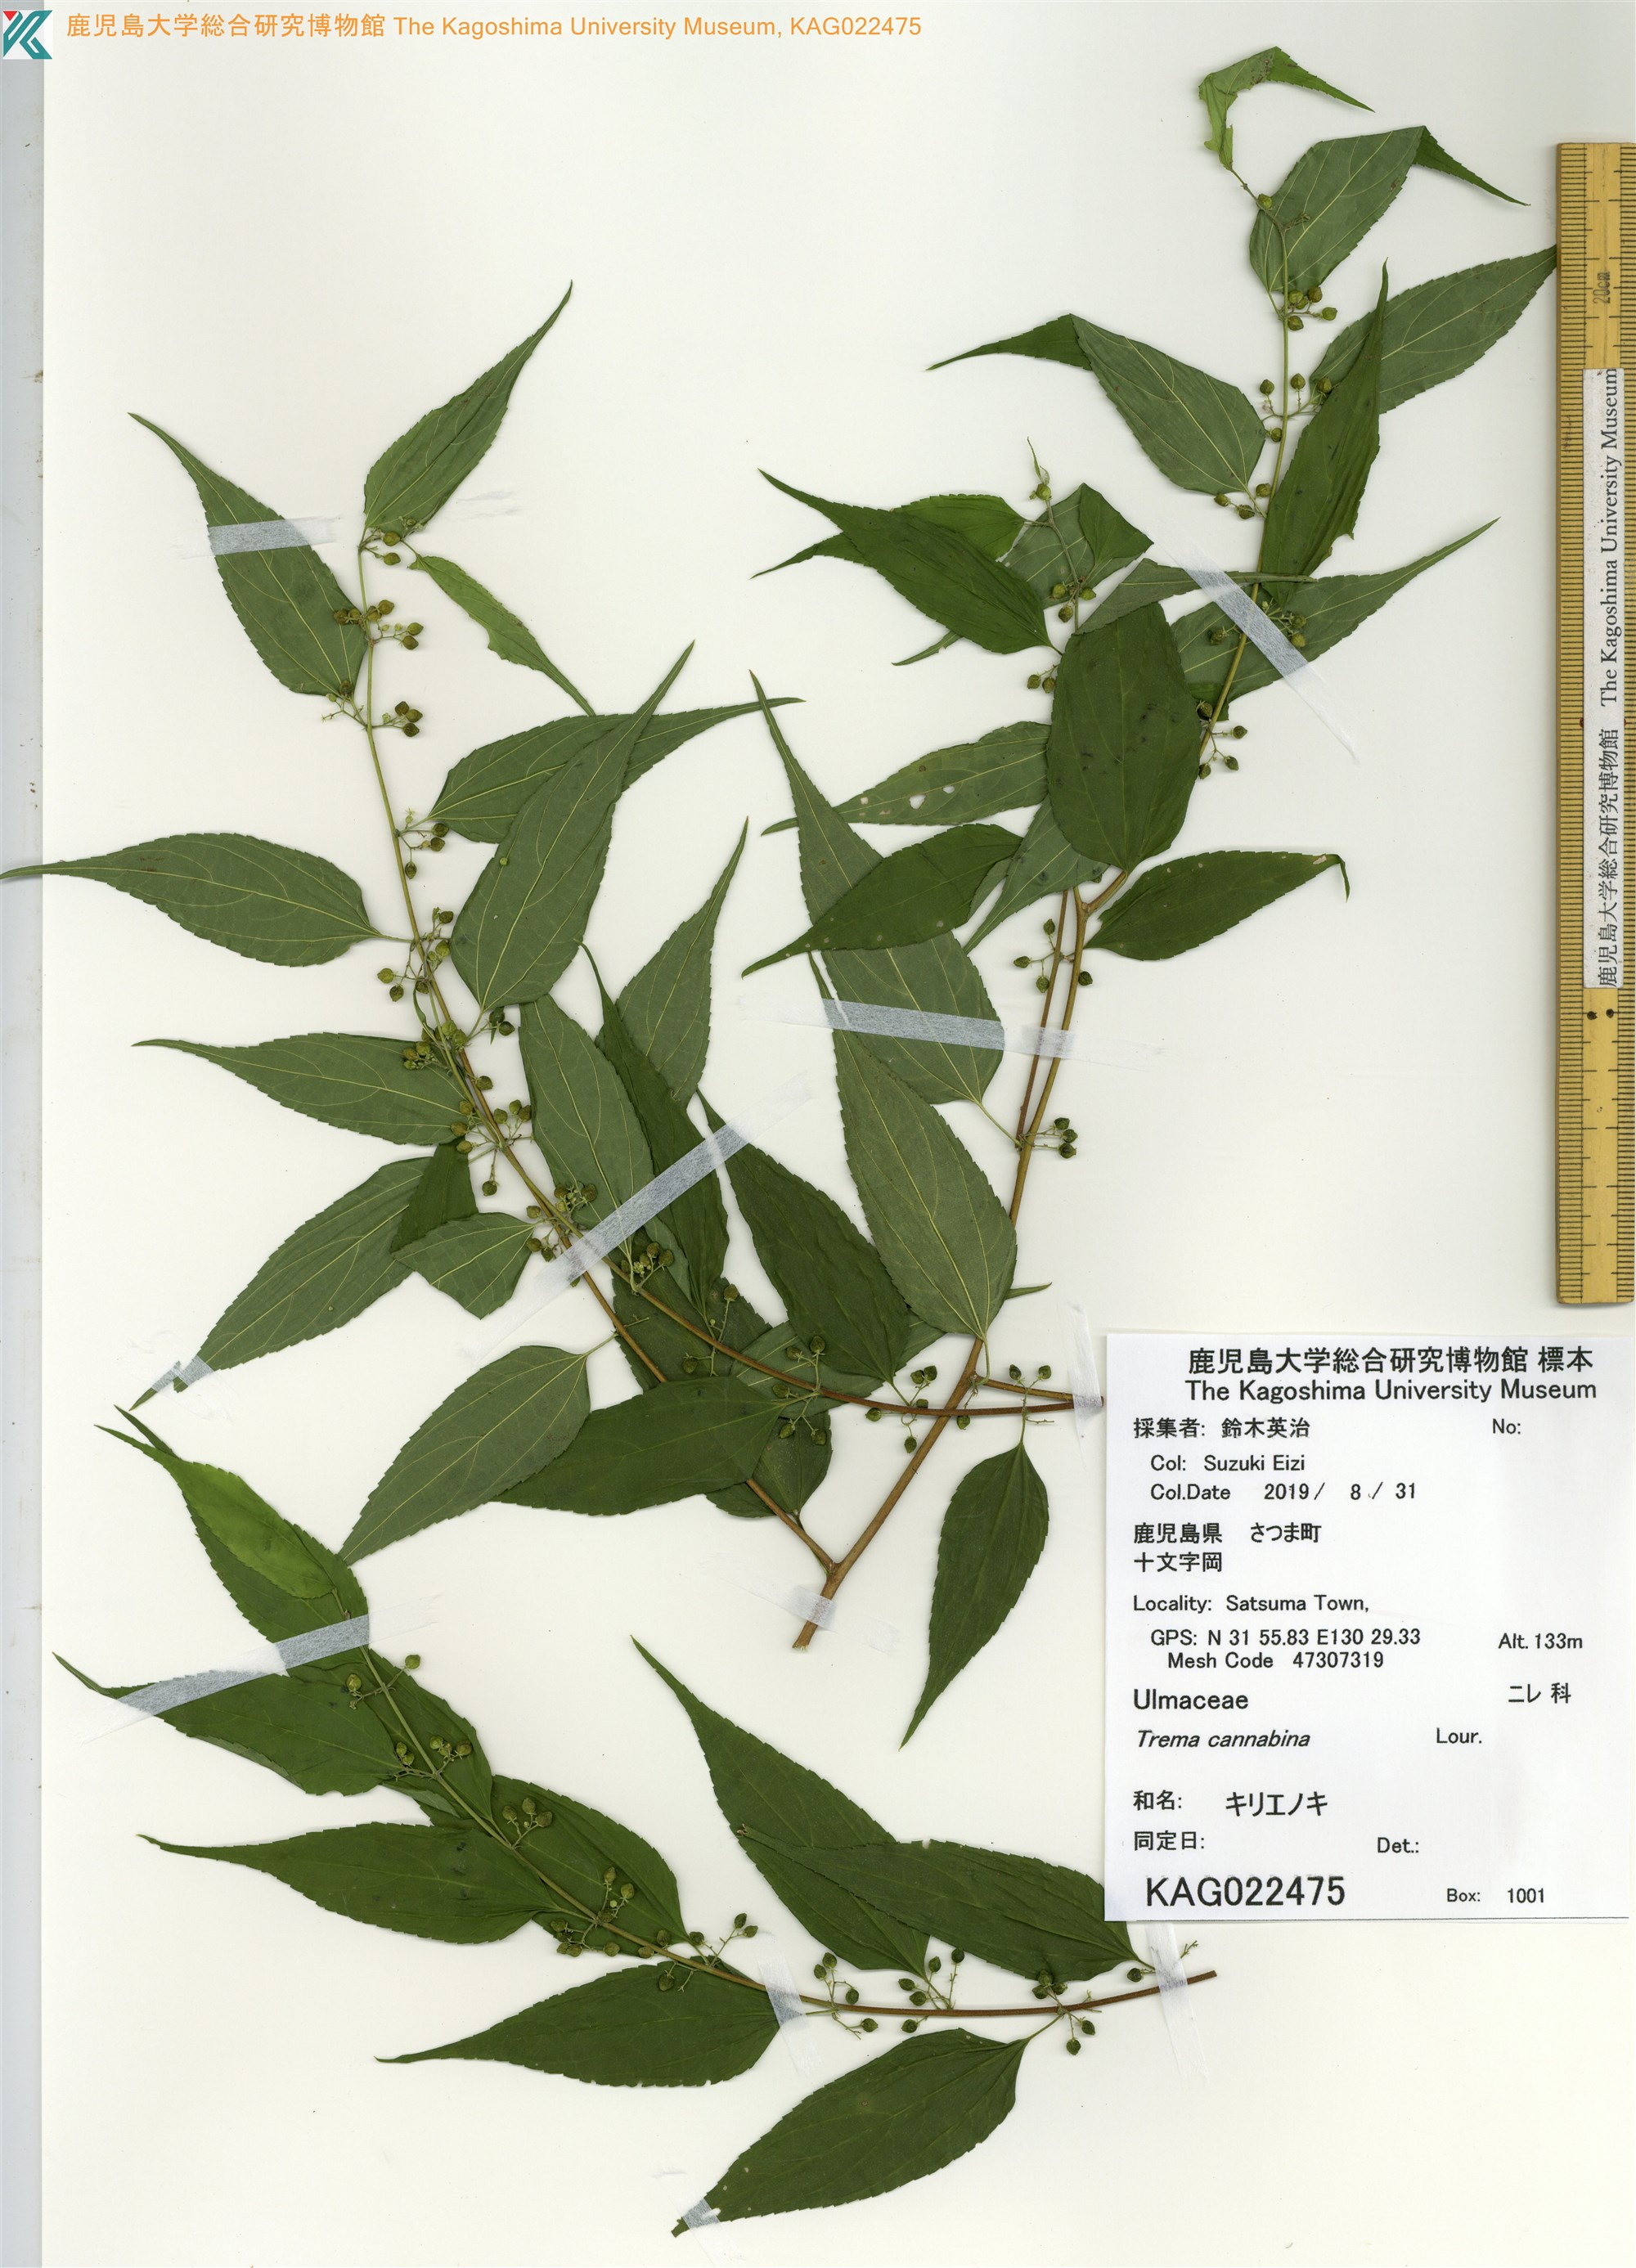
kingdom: Plantae
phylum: Tracheophyta
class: Magnoliopsida
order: Rosales
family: Cannabaceae
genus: Trema
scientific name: Trema cannabina
